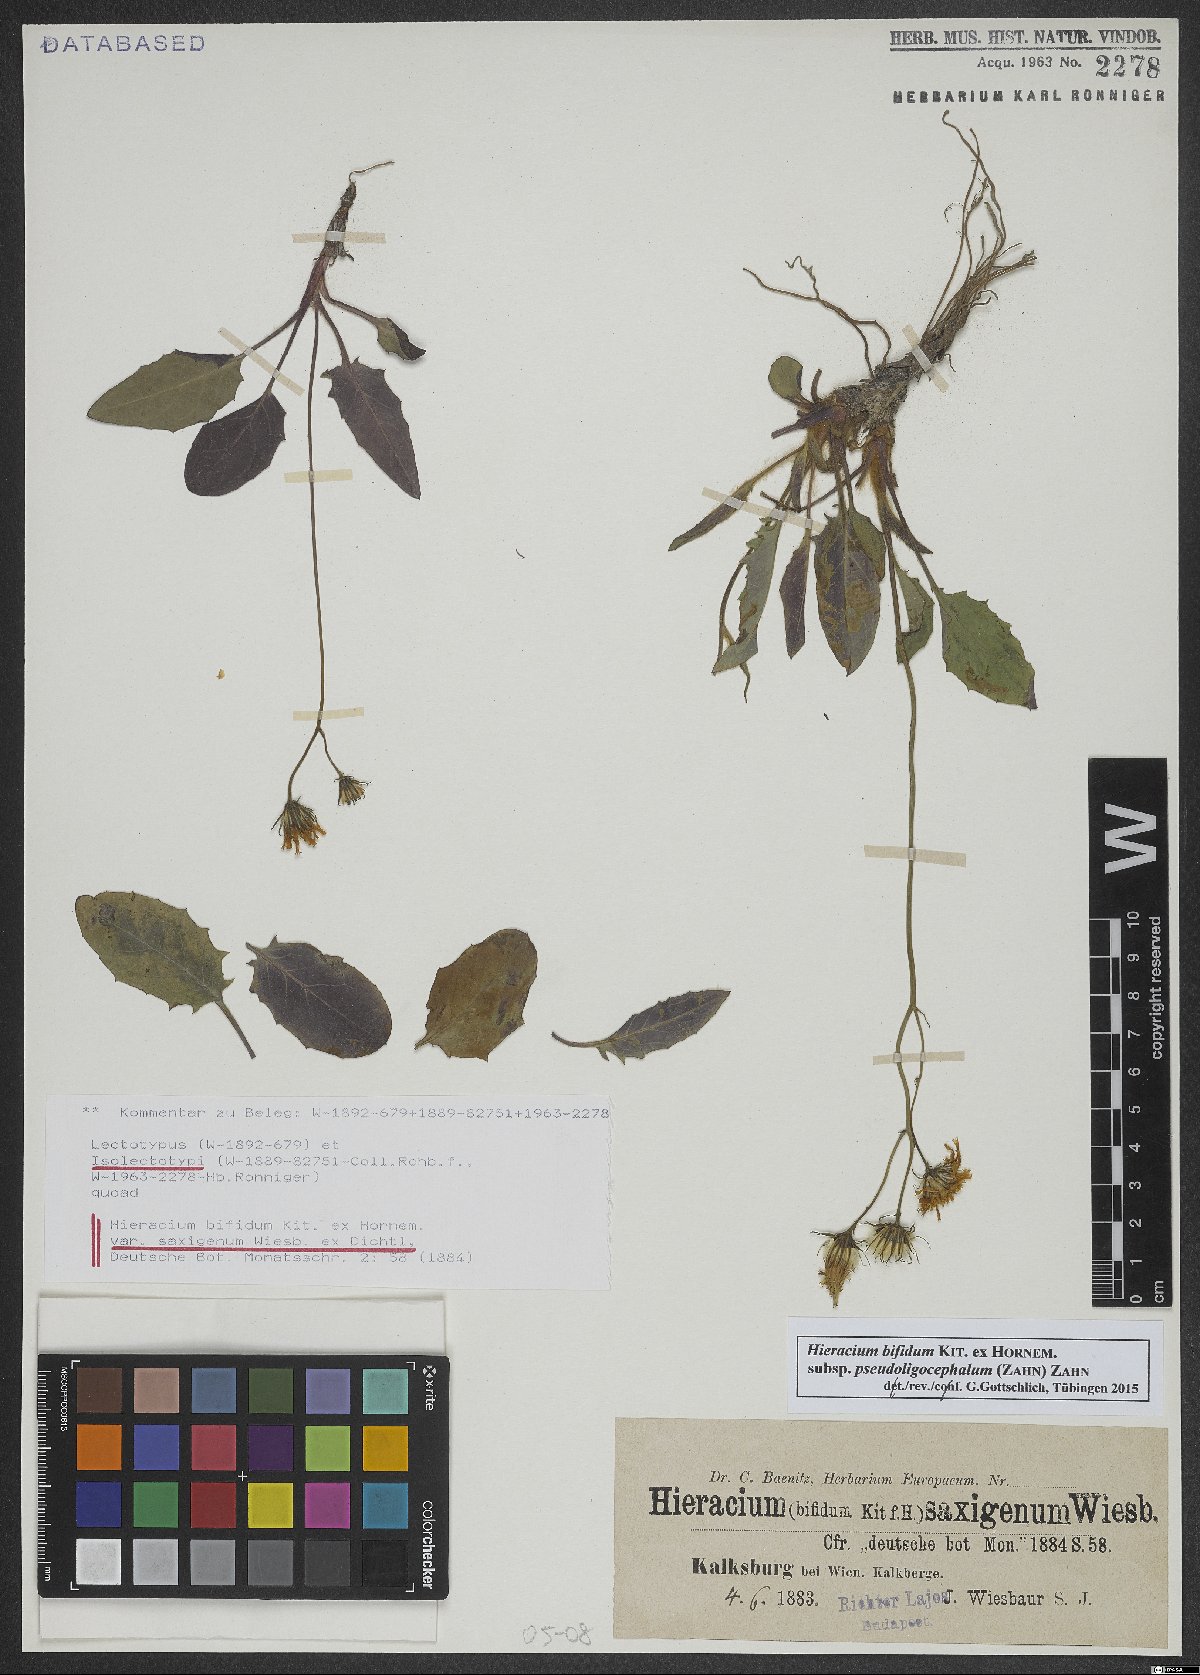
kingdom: Plantae
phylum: Tracheophyta
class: Magnoliopsida
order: Asterales
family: Asteraceae
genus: Hieracium
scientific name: Hieracium bifidum
